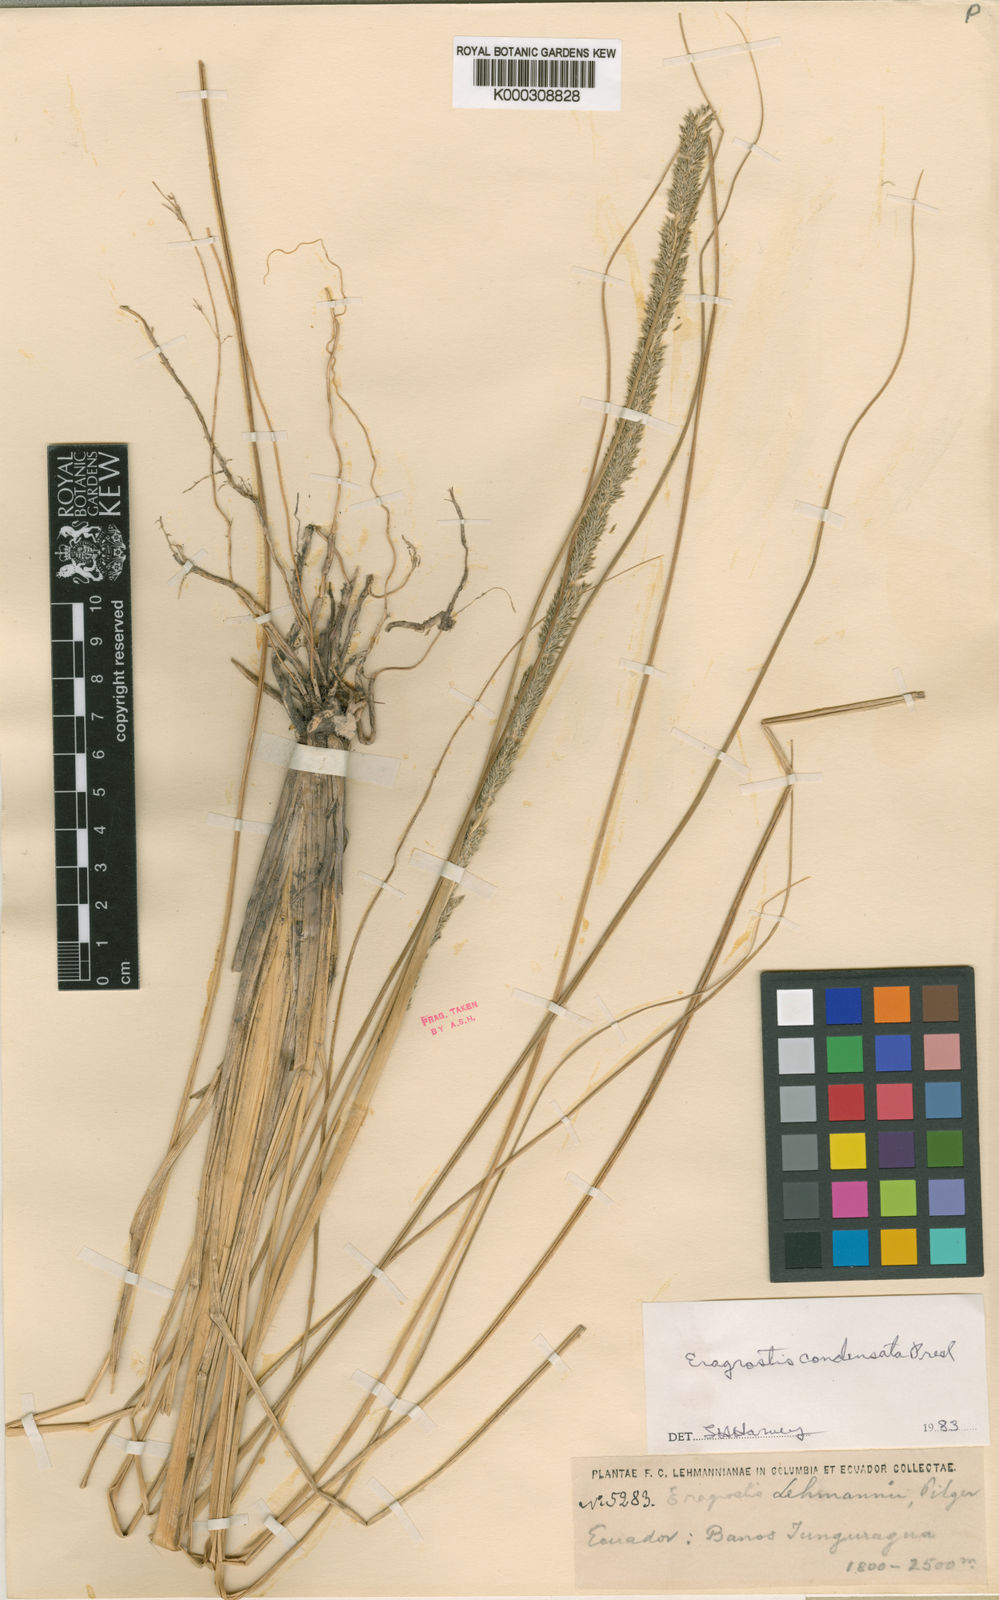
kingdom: Plantae
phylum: Tracheophyta
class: Liliopsida
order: Poales
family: Poaceae
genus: Eragrostis
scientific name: Eragrostis condensata
